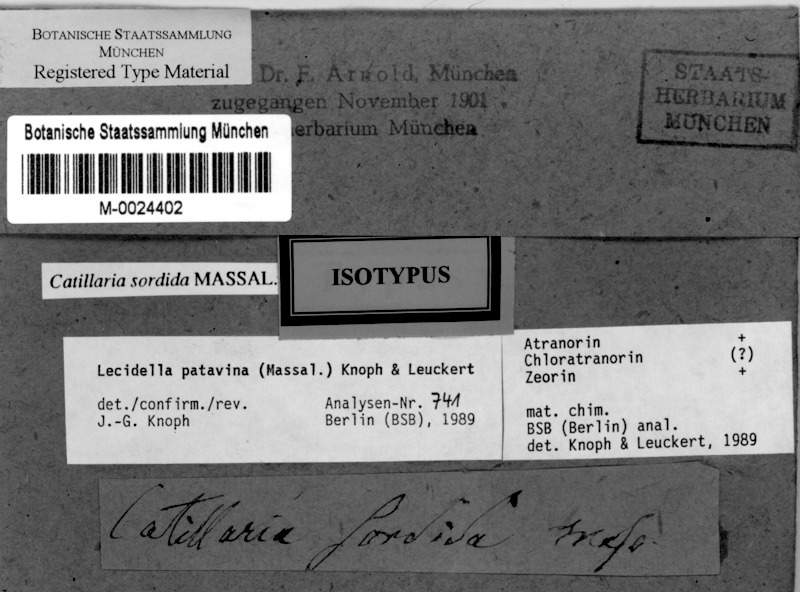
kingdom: Fungi
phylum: Ascomycota
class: Lecanoromycetes
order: Lecanorales
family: Lecanoraceae
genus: Lecidella
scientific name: Lecidella patavina
